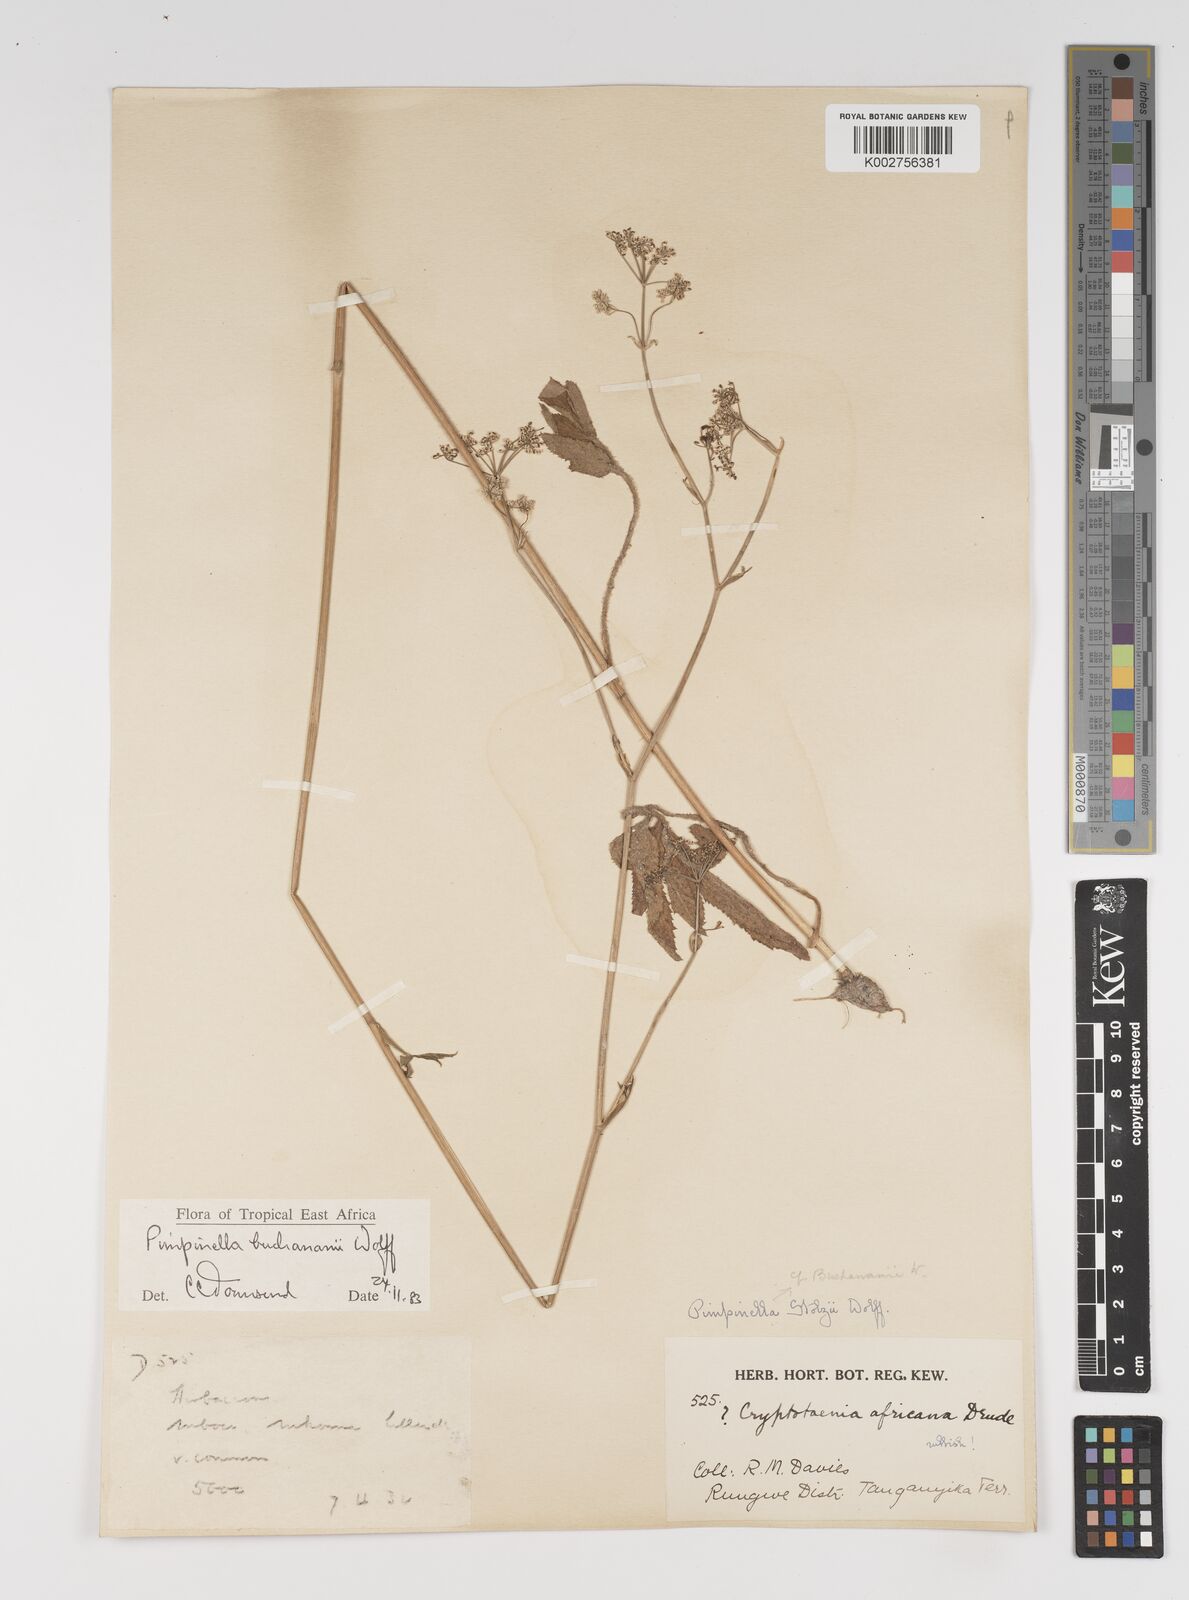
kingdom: Plantae
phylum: Tracheophyta
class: Magnoliopsida
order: Apiales
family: Apiaceae
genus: Pimpinella
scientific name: Pimpinella buchananii
